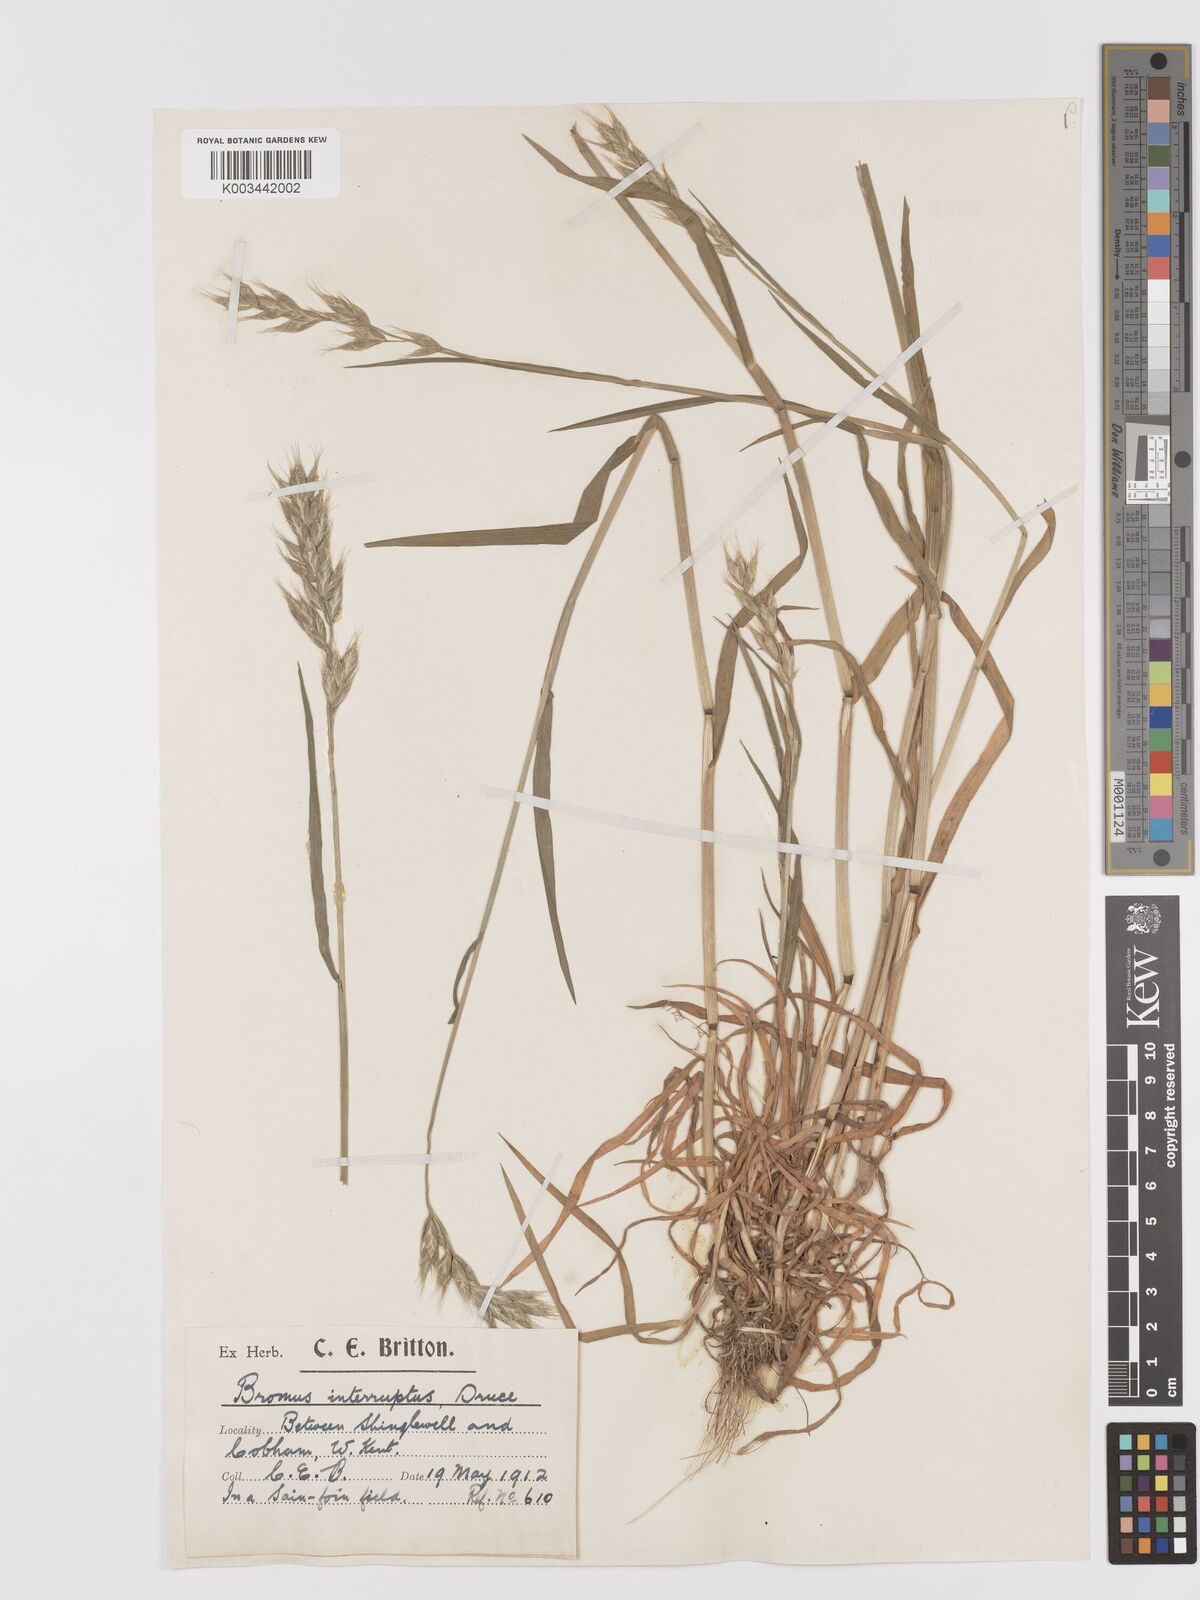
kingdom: Plantae
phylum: Tracheophyta
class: Liliopsida
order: Poales
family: Poaceae
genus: Bromus
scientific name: Bromus interruptus
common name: Interrupted brome
